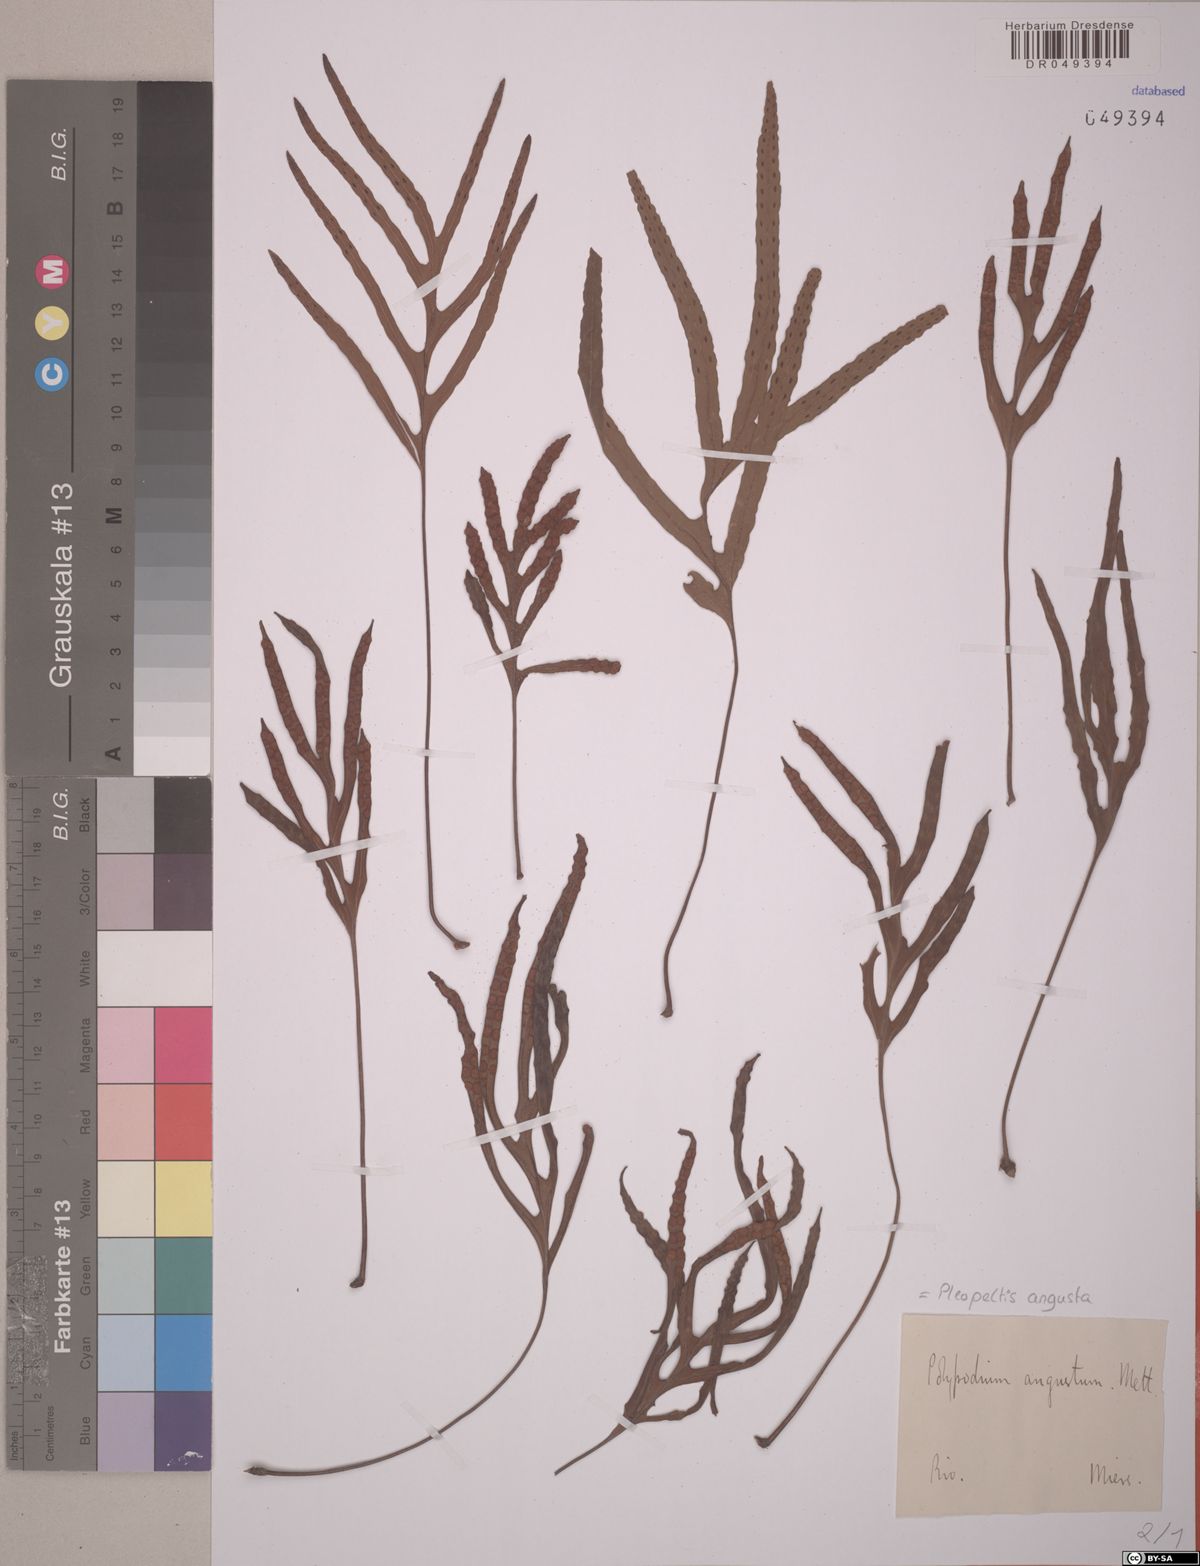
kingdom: Plantae
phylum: Tracheophyta
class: Polypodiopsida
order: Polypodiales
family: Polypodiaceae
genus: Pleopeltis
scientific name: Pleopeltis angusta
